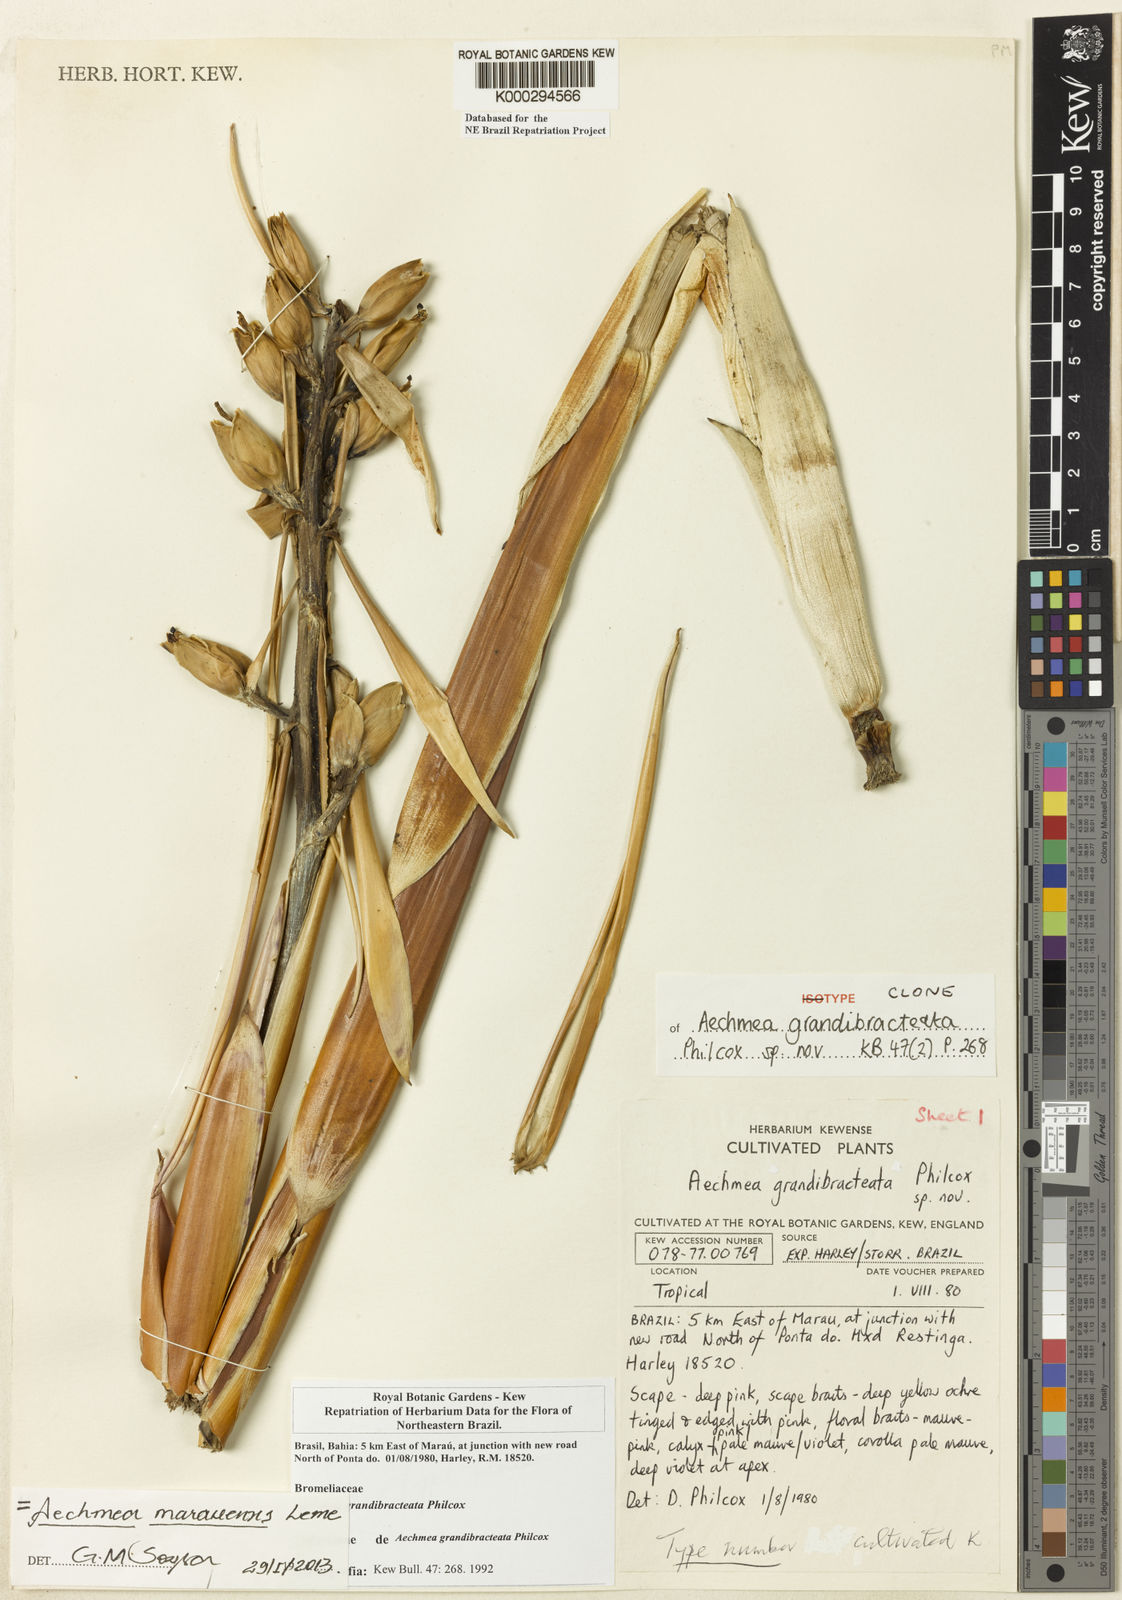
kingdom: Plantae
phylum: Tracheophyta
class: Liliopsida
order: Poales
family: Bromeliaceae
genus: Aechmea
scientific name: Aechmea marauensis
